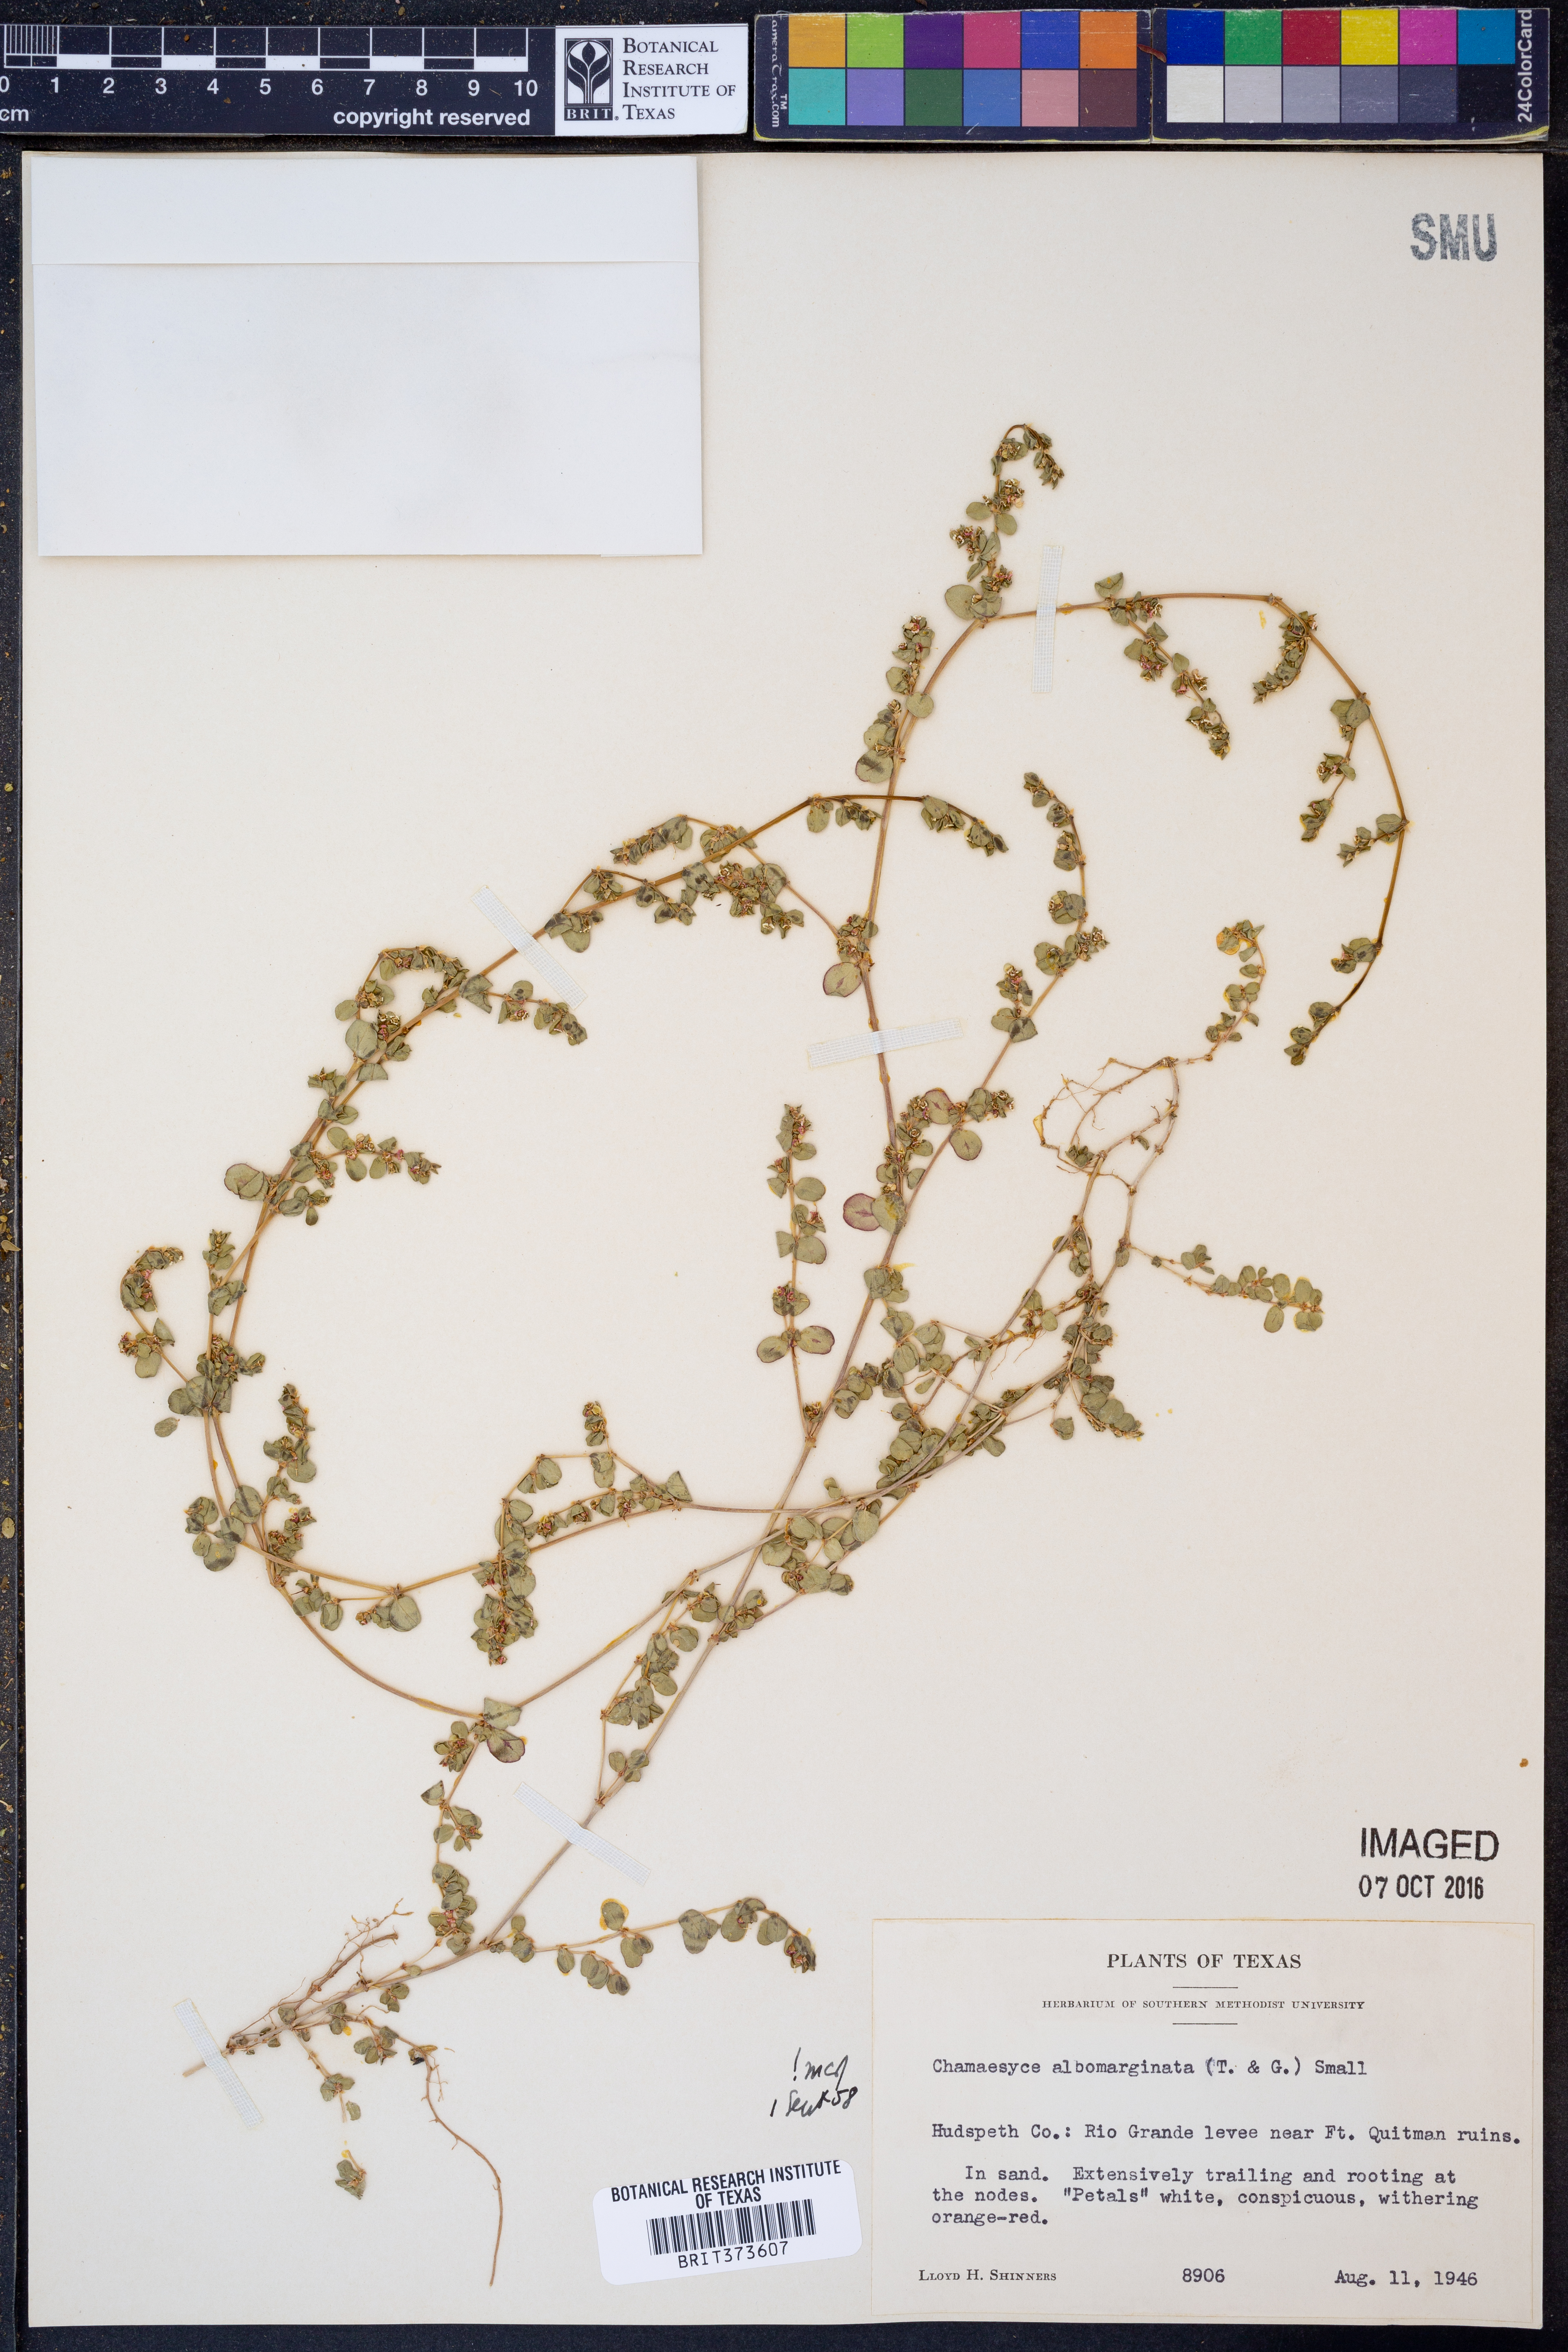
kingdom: Plantae
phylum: Tracheophyta
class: Magnoliopsida
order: Malpighiales
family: Euphorbiaceae
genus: Euphorbia
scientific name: Euphorbia albomarginata
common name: Whitemargin sandmat
